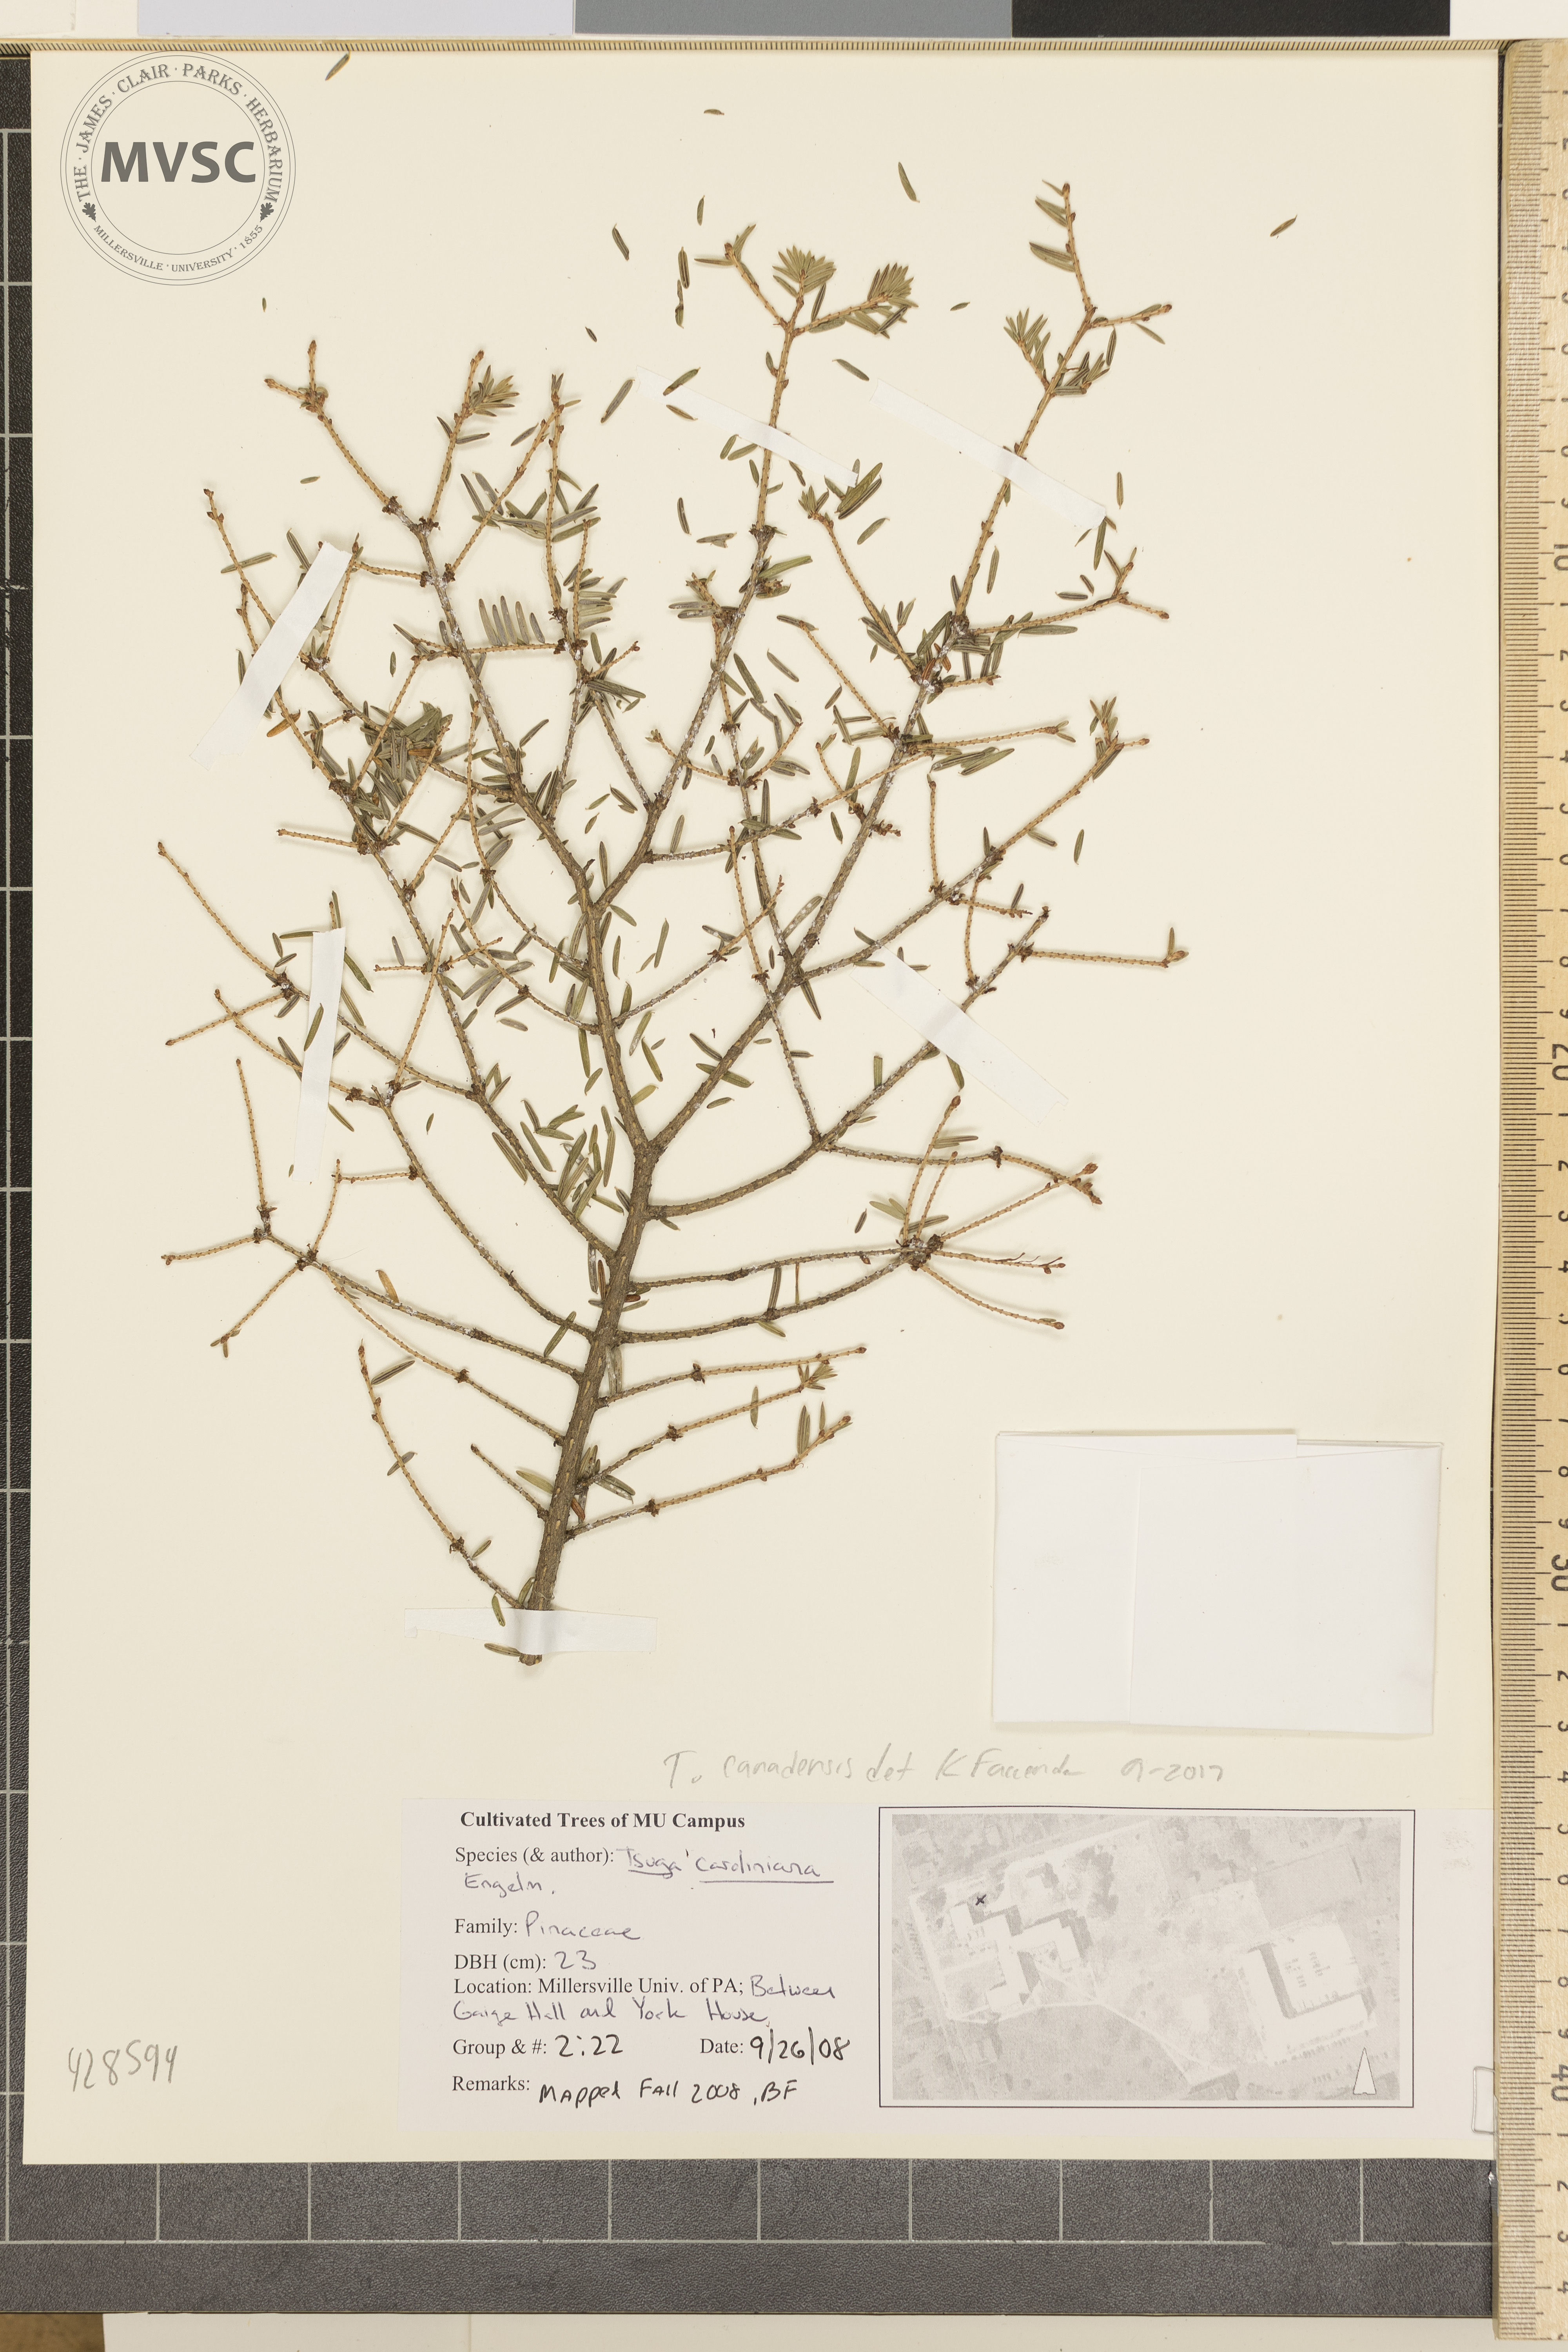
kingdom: Plantae
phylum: Tracheophyta
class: Pinopsida
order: Pinales
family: Pinaceae
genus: Tsuga
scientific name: Tsuga canadensis
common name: Eastern hemlock
